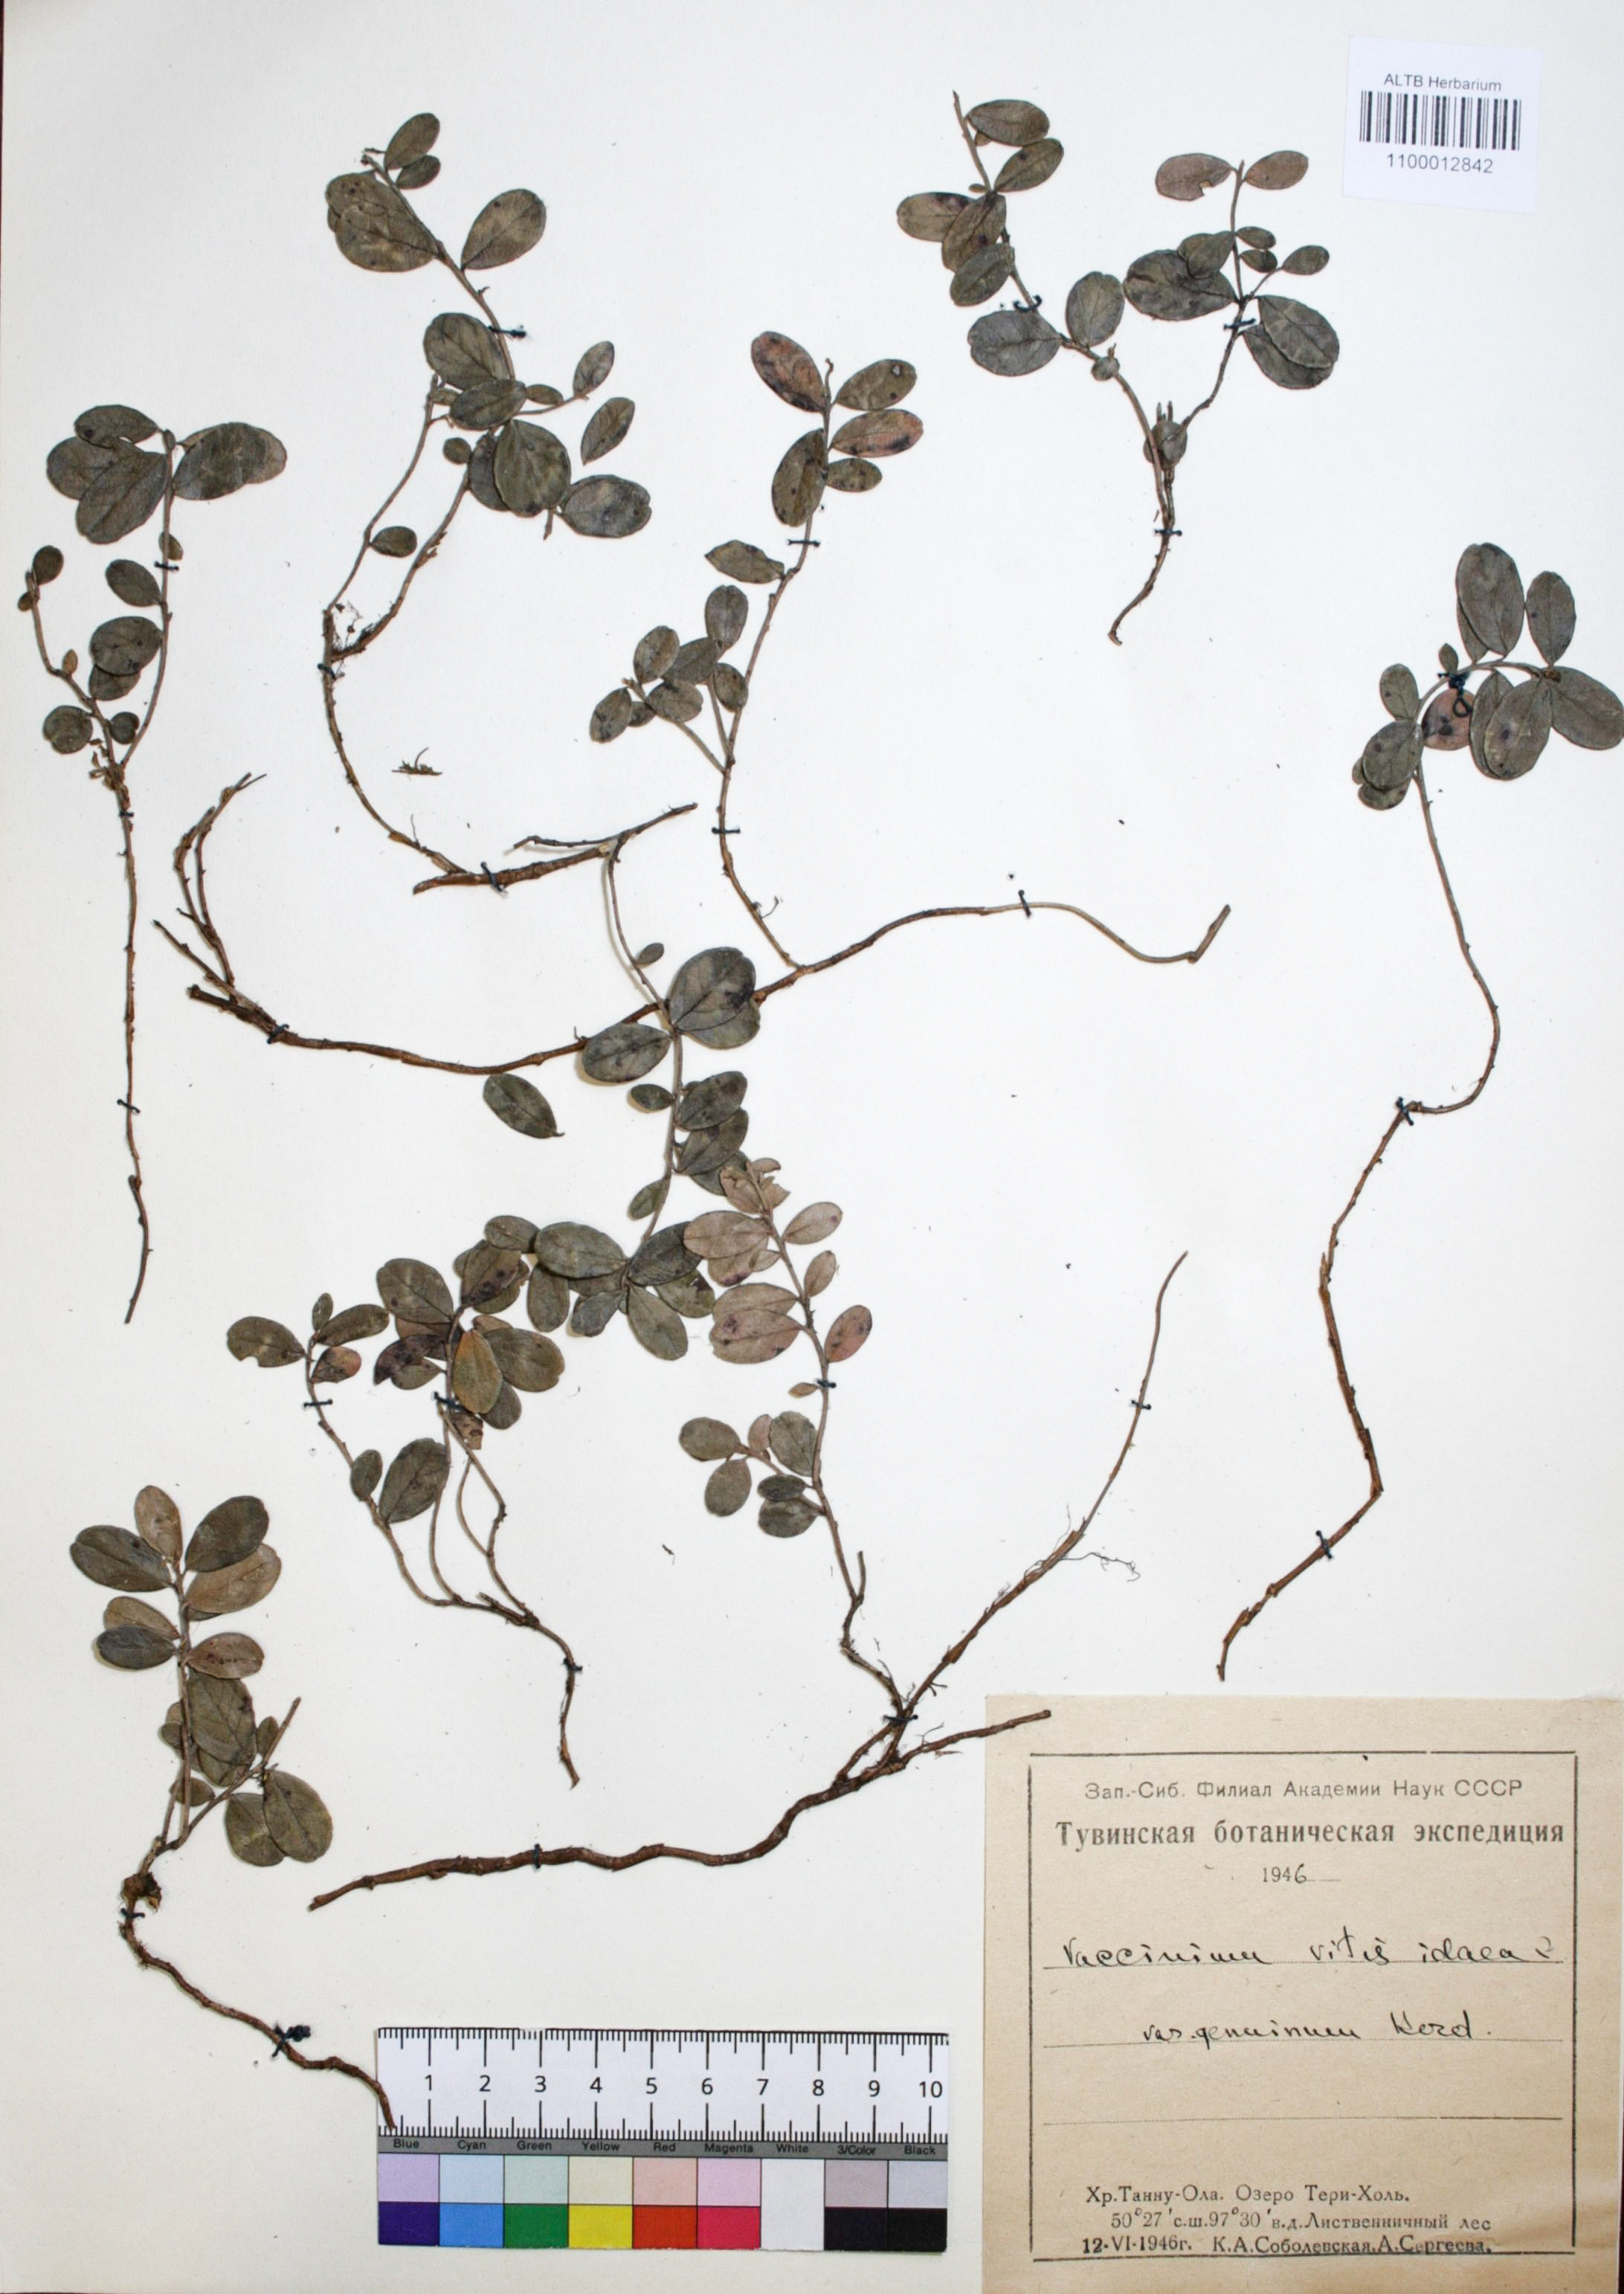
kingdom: Plantae
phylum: Tracheophyta
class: Magnoliopsida
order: Ericales
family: Ericaceae
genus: Vaccinium
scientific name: Vaccinium vitis-idaea
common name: Cowberry
